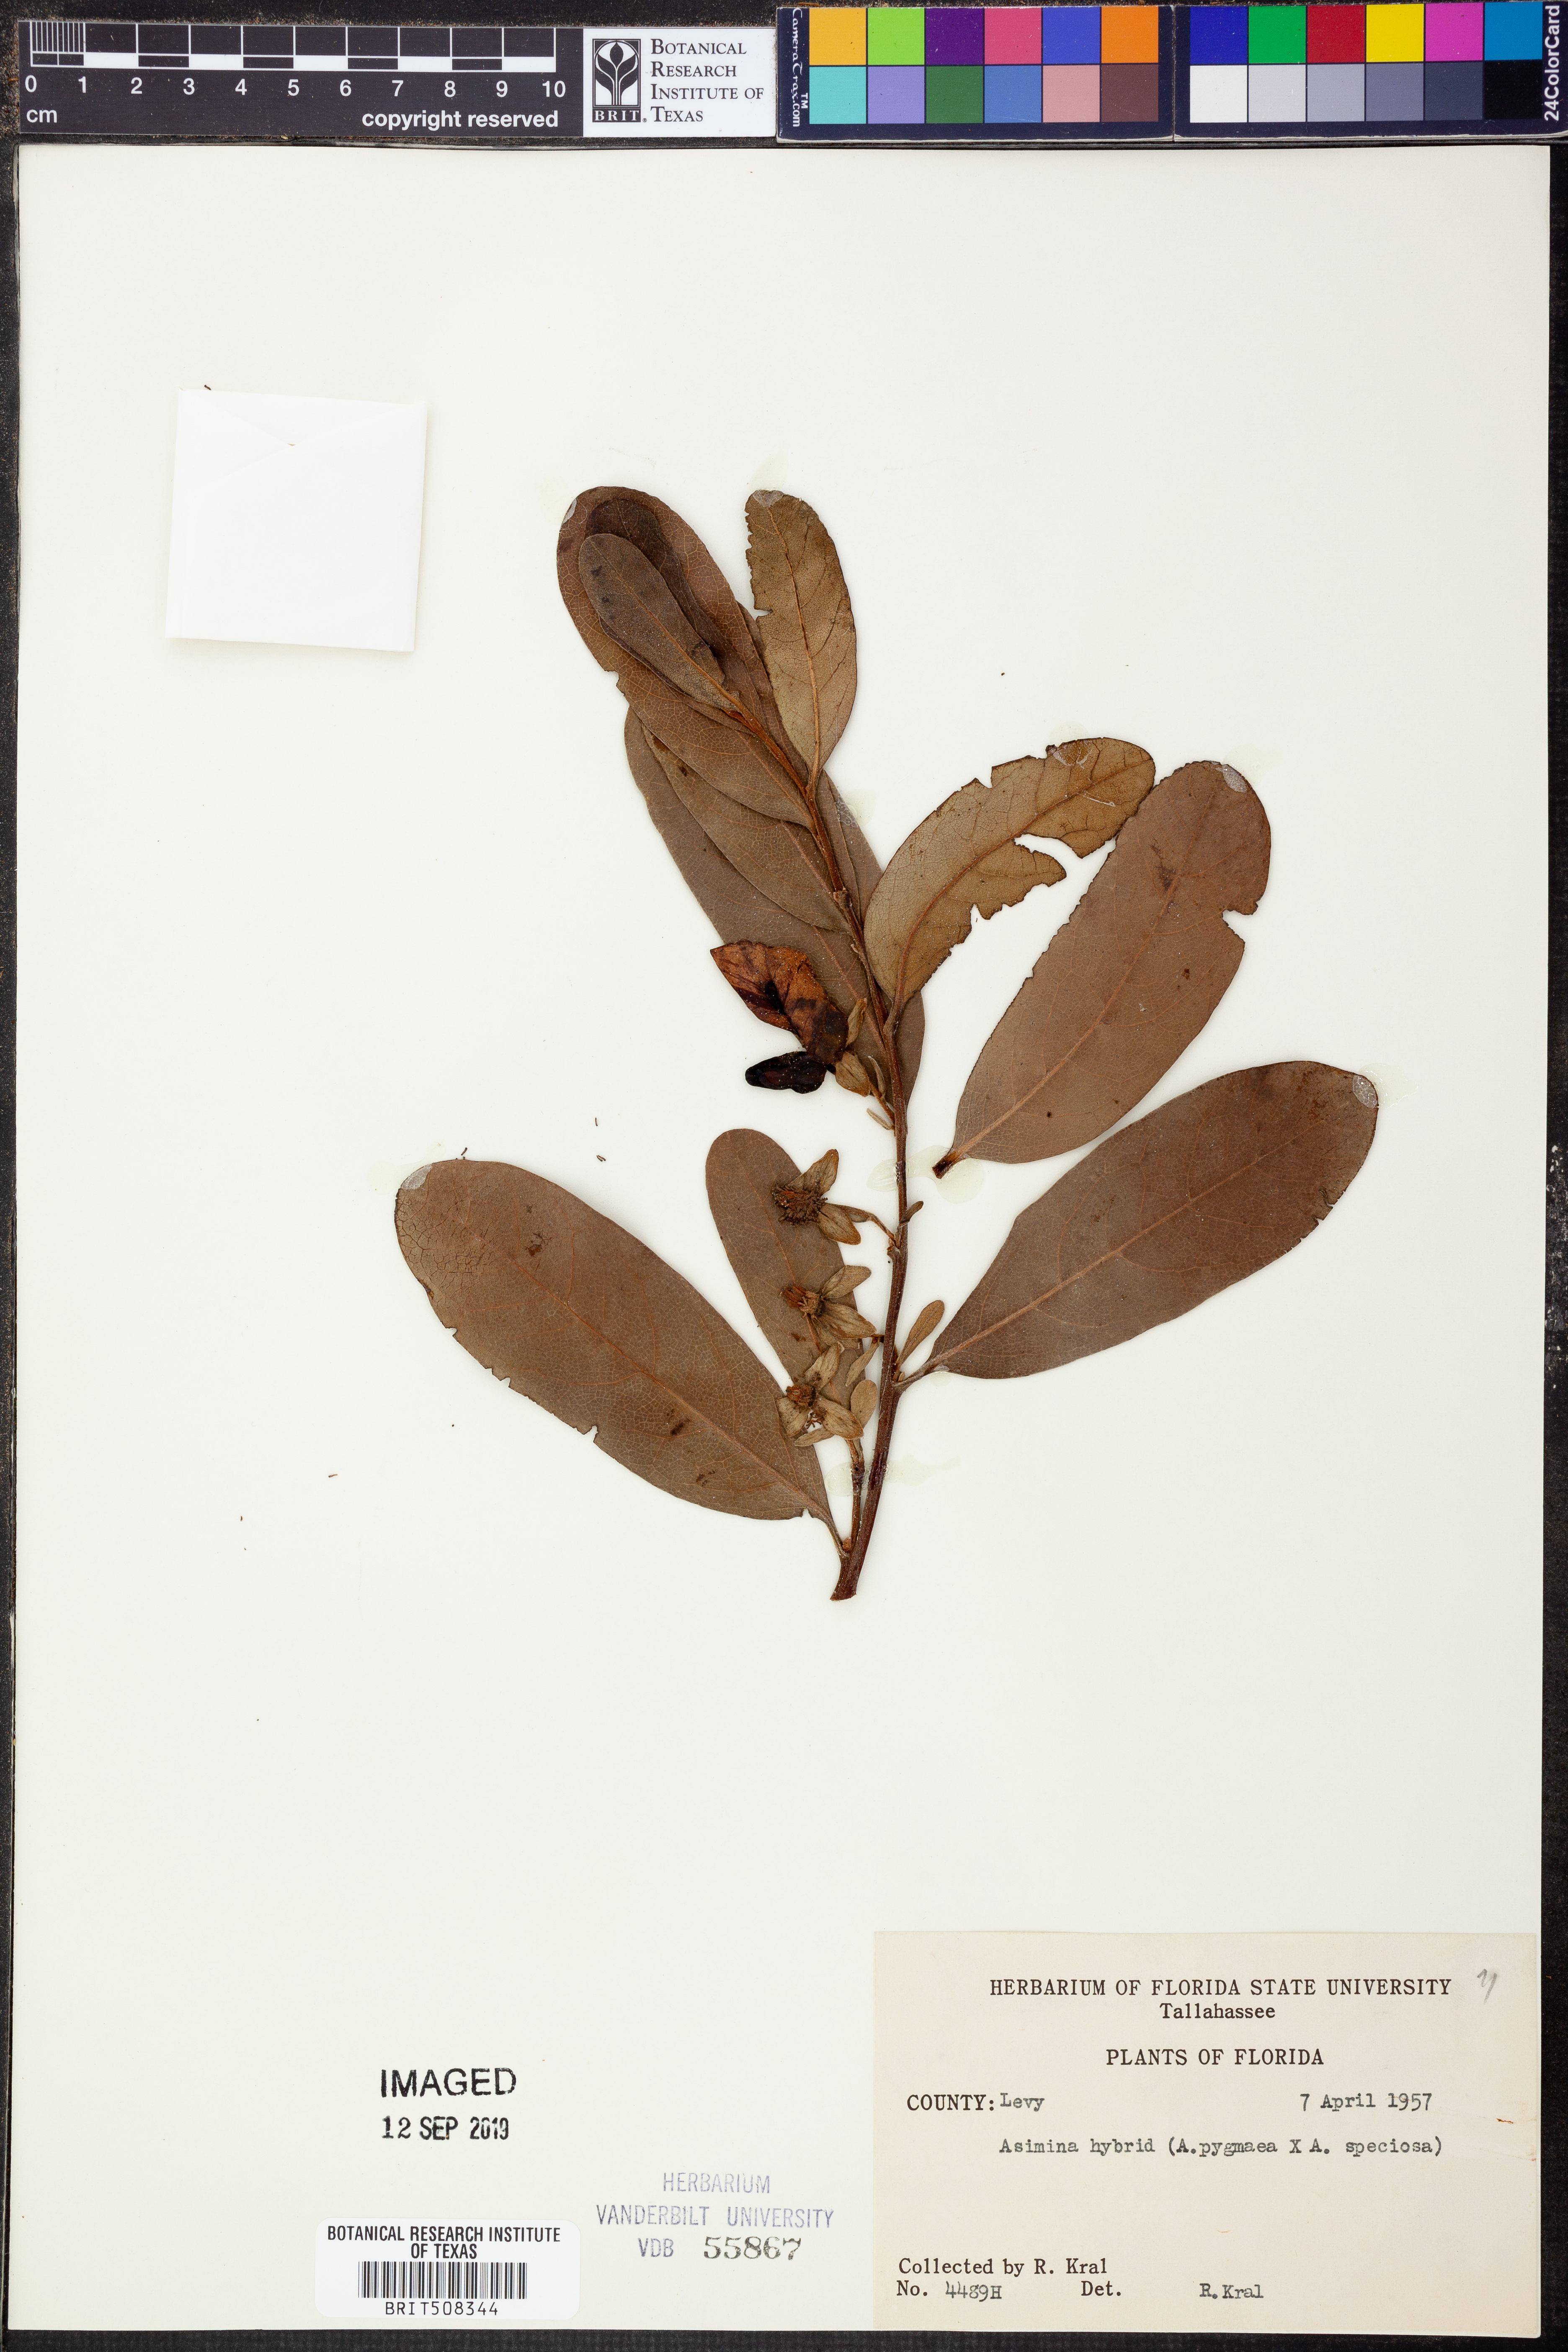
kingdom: Plantae
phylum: Tracheophyta
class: Magnoliopsida
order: Lamiales
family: Verbenaceae
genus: Verbena
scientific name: Verbena halei
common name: Texas vervain
